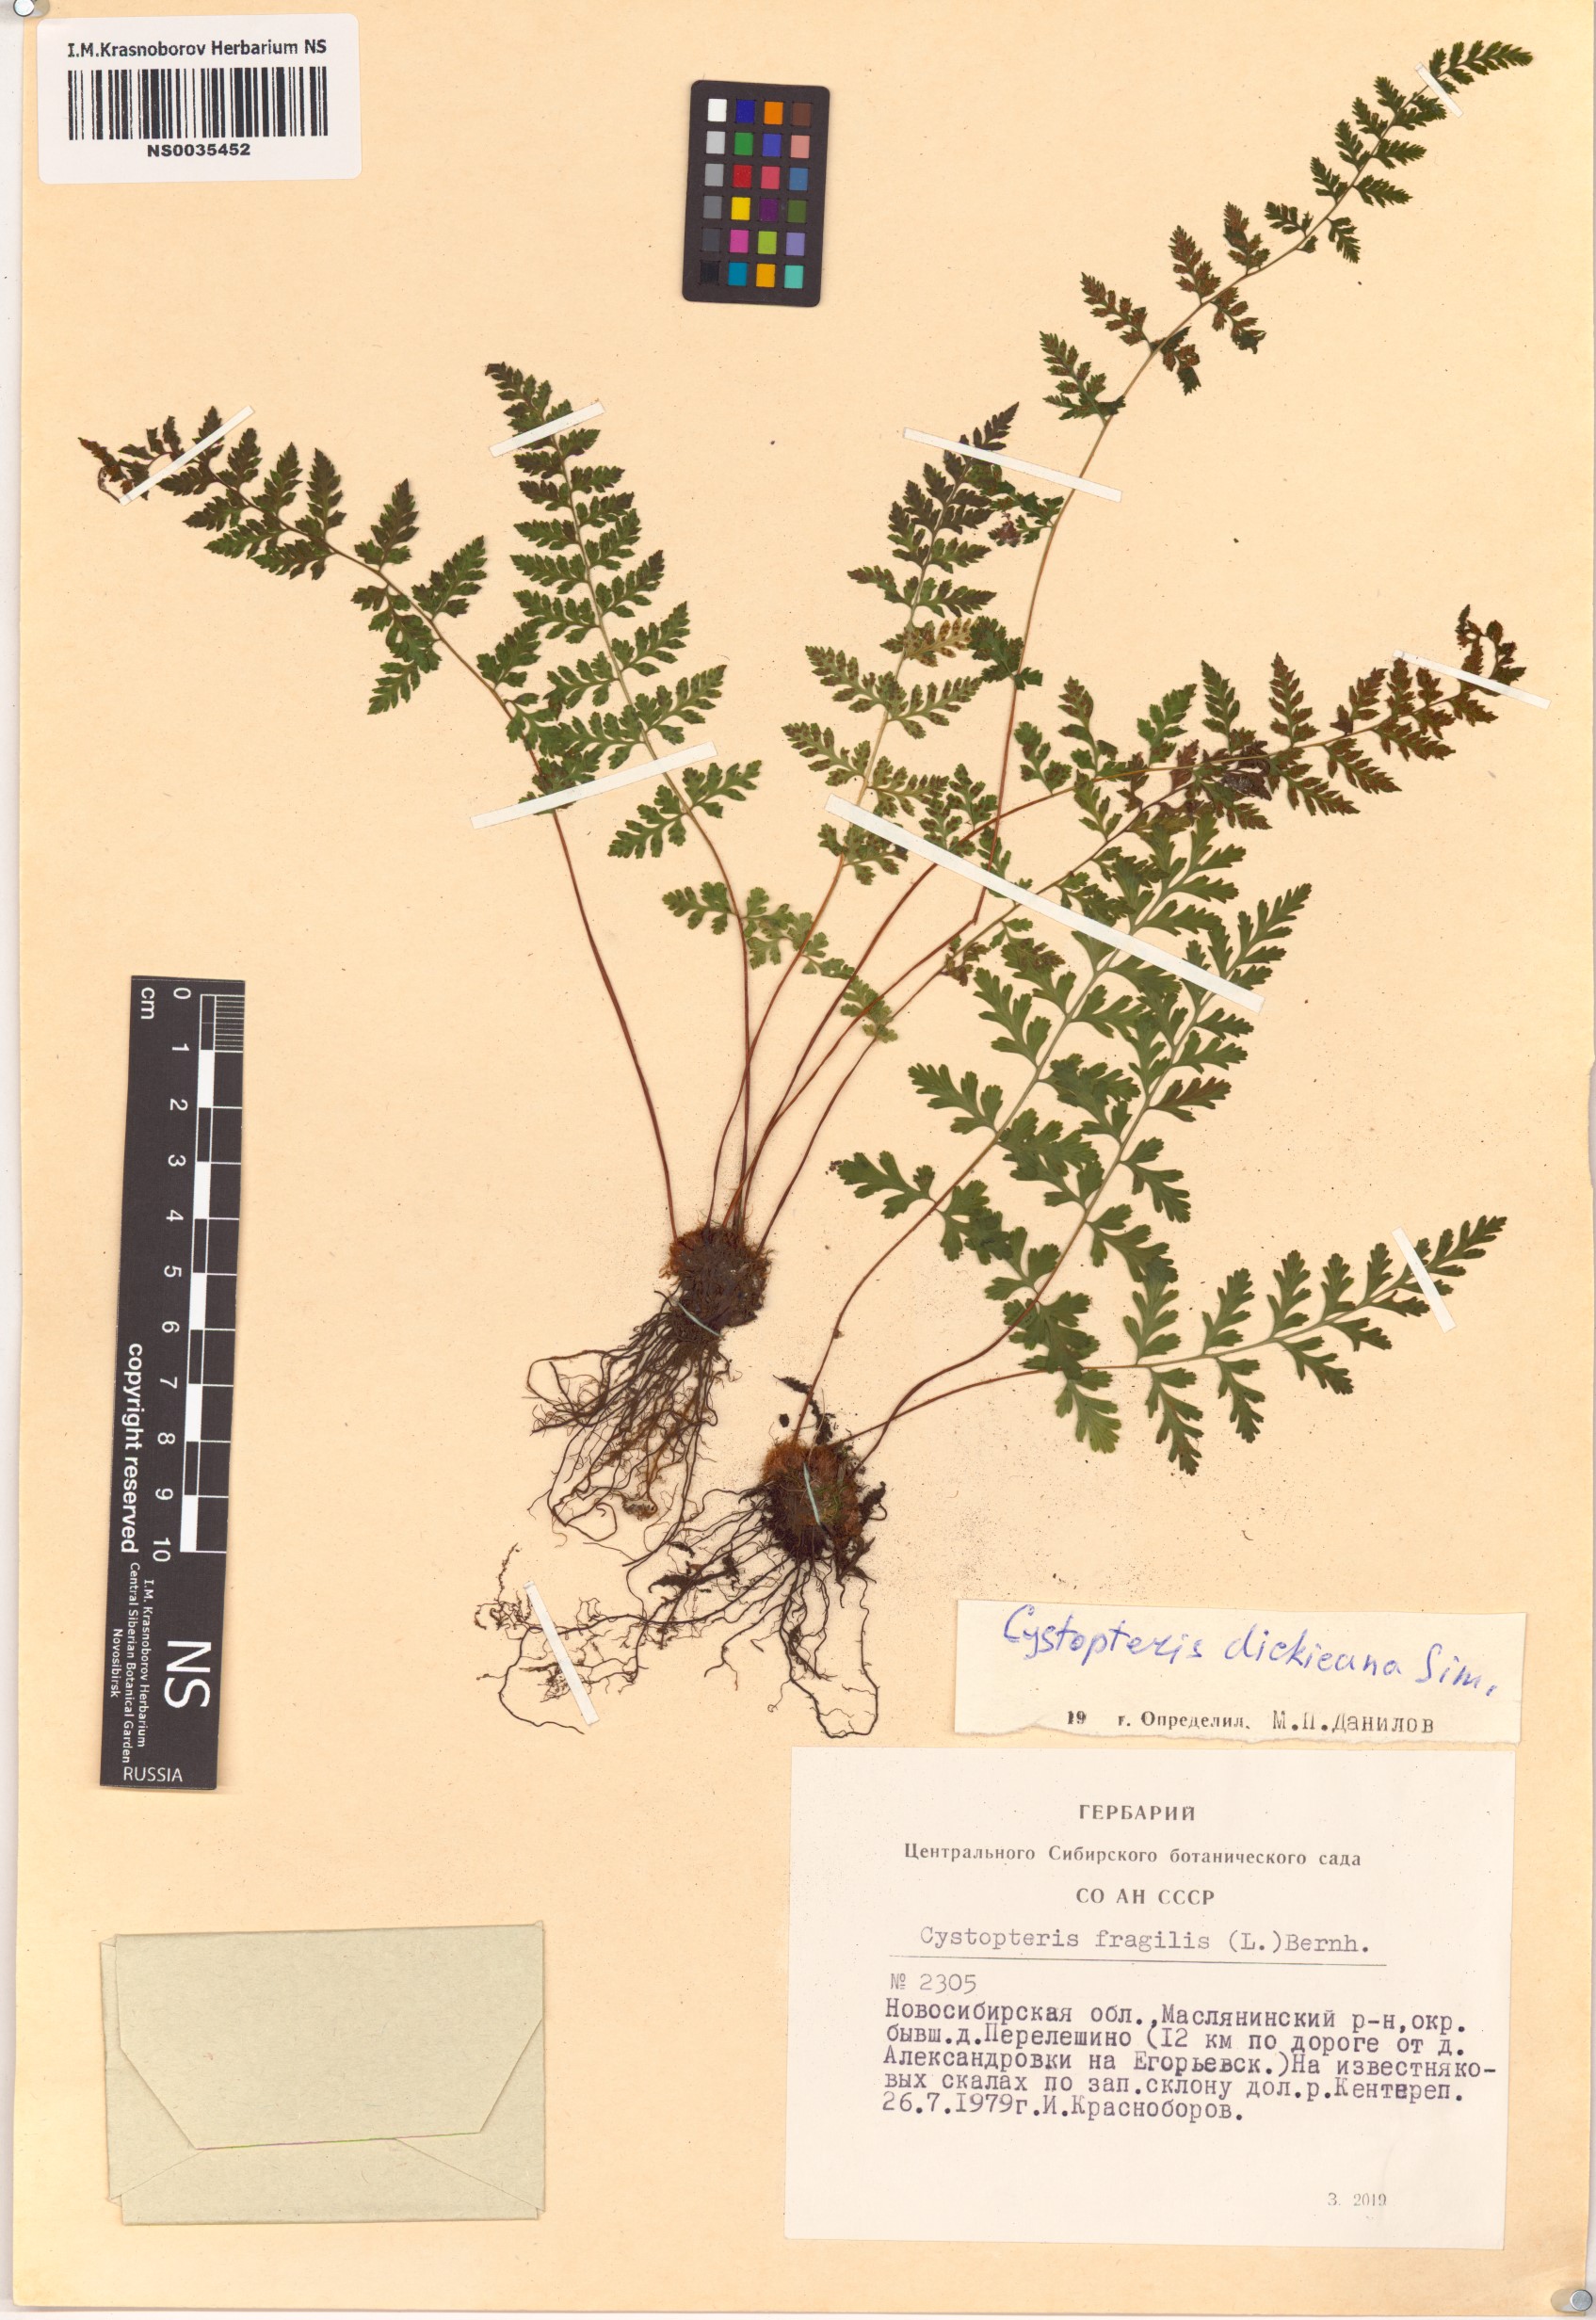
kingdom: Plantae
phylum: Tracheophyta
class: Polypodiopsida
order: Polypodiales
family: Cystopteridaceae
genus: Cystopteris
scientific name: Cystopteris dickieana
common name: Dickie's bladder-fern
